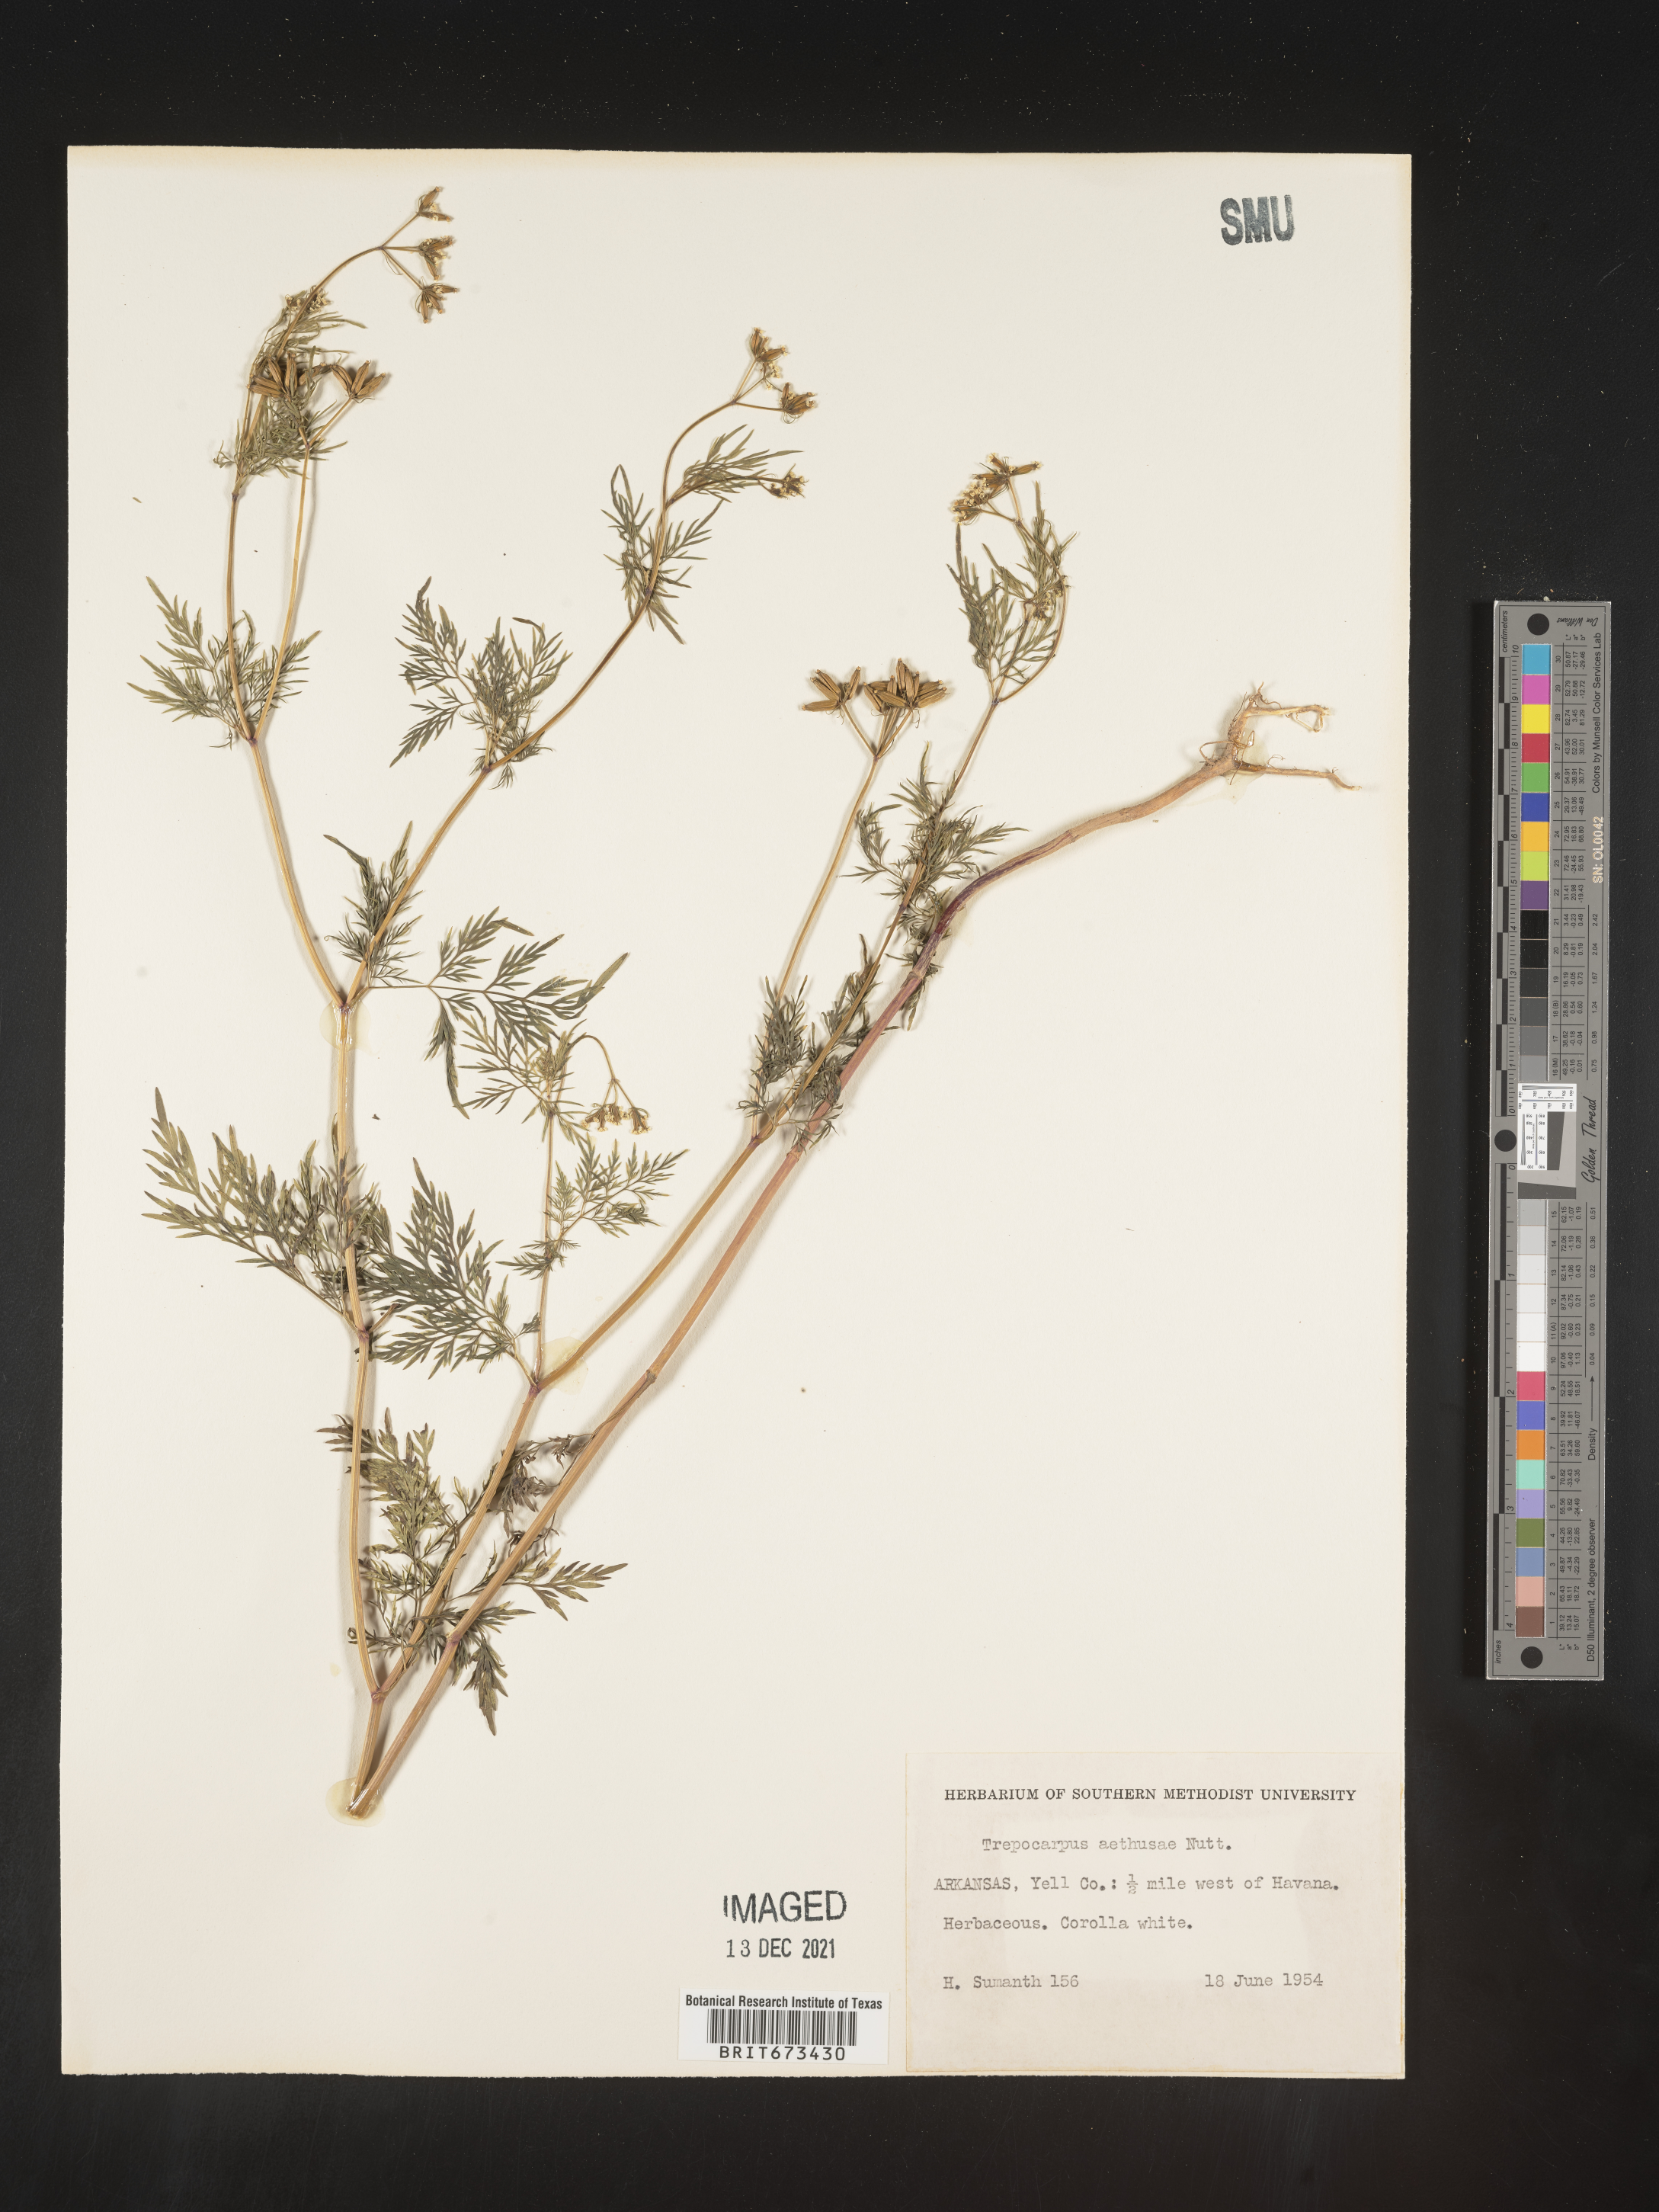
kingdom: Plantae
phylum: Tracheophyta
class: Magnoliopsida
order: Apiales
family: Apiaceae
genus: Trepocarpus
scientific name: Trepocarpus aethusae
